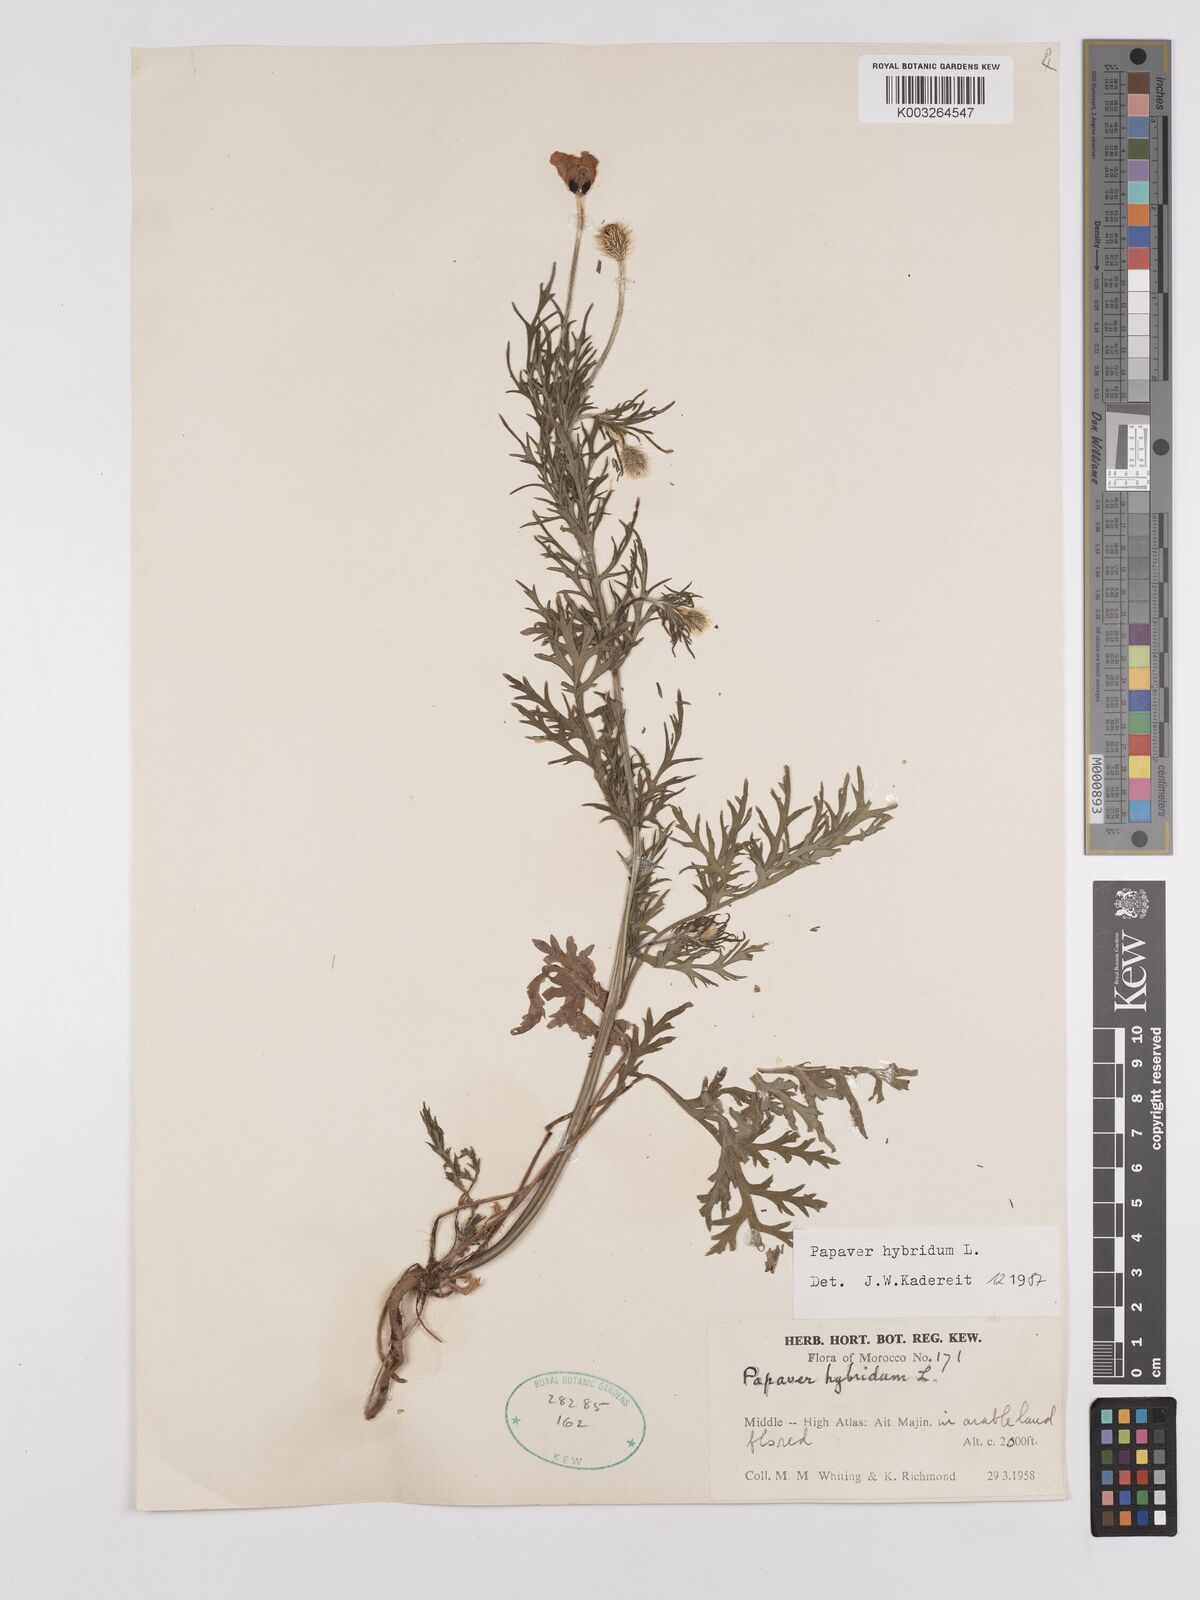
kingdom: Plantae
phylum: Tracheophyta
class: Magnoliopsida
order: Ranunculales
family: Papaveraceae
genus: Papaver
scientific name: Papaver
